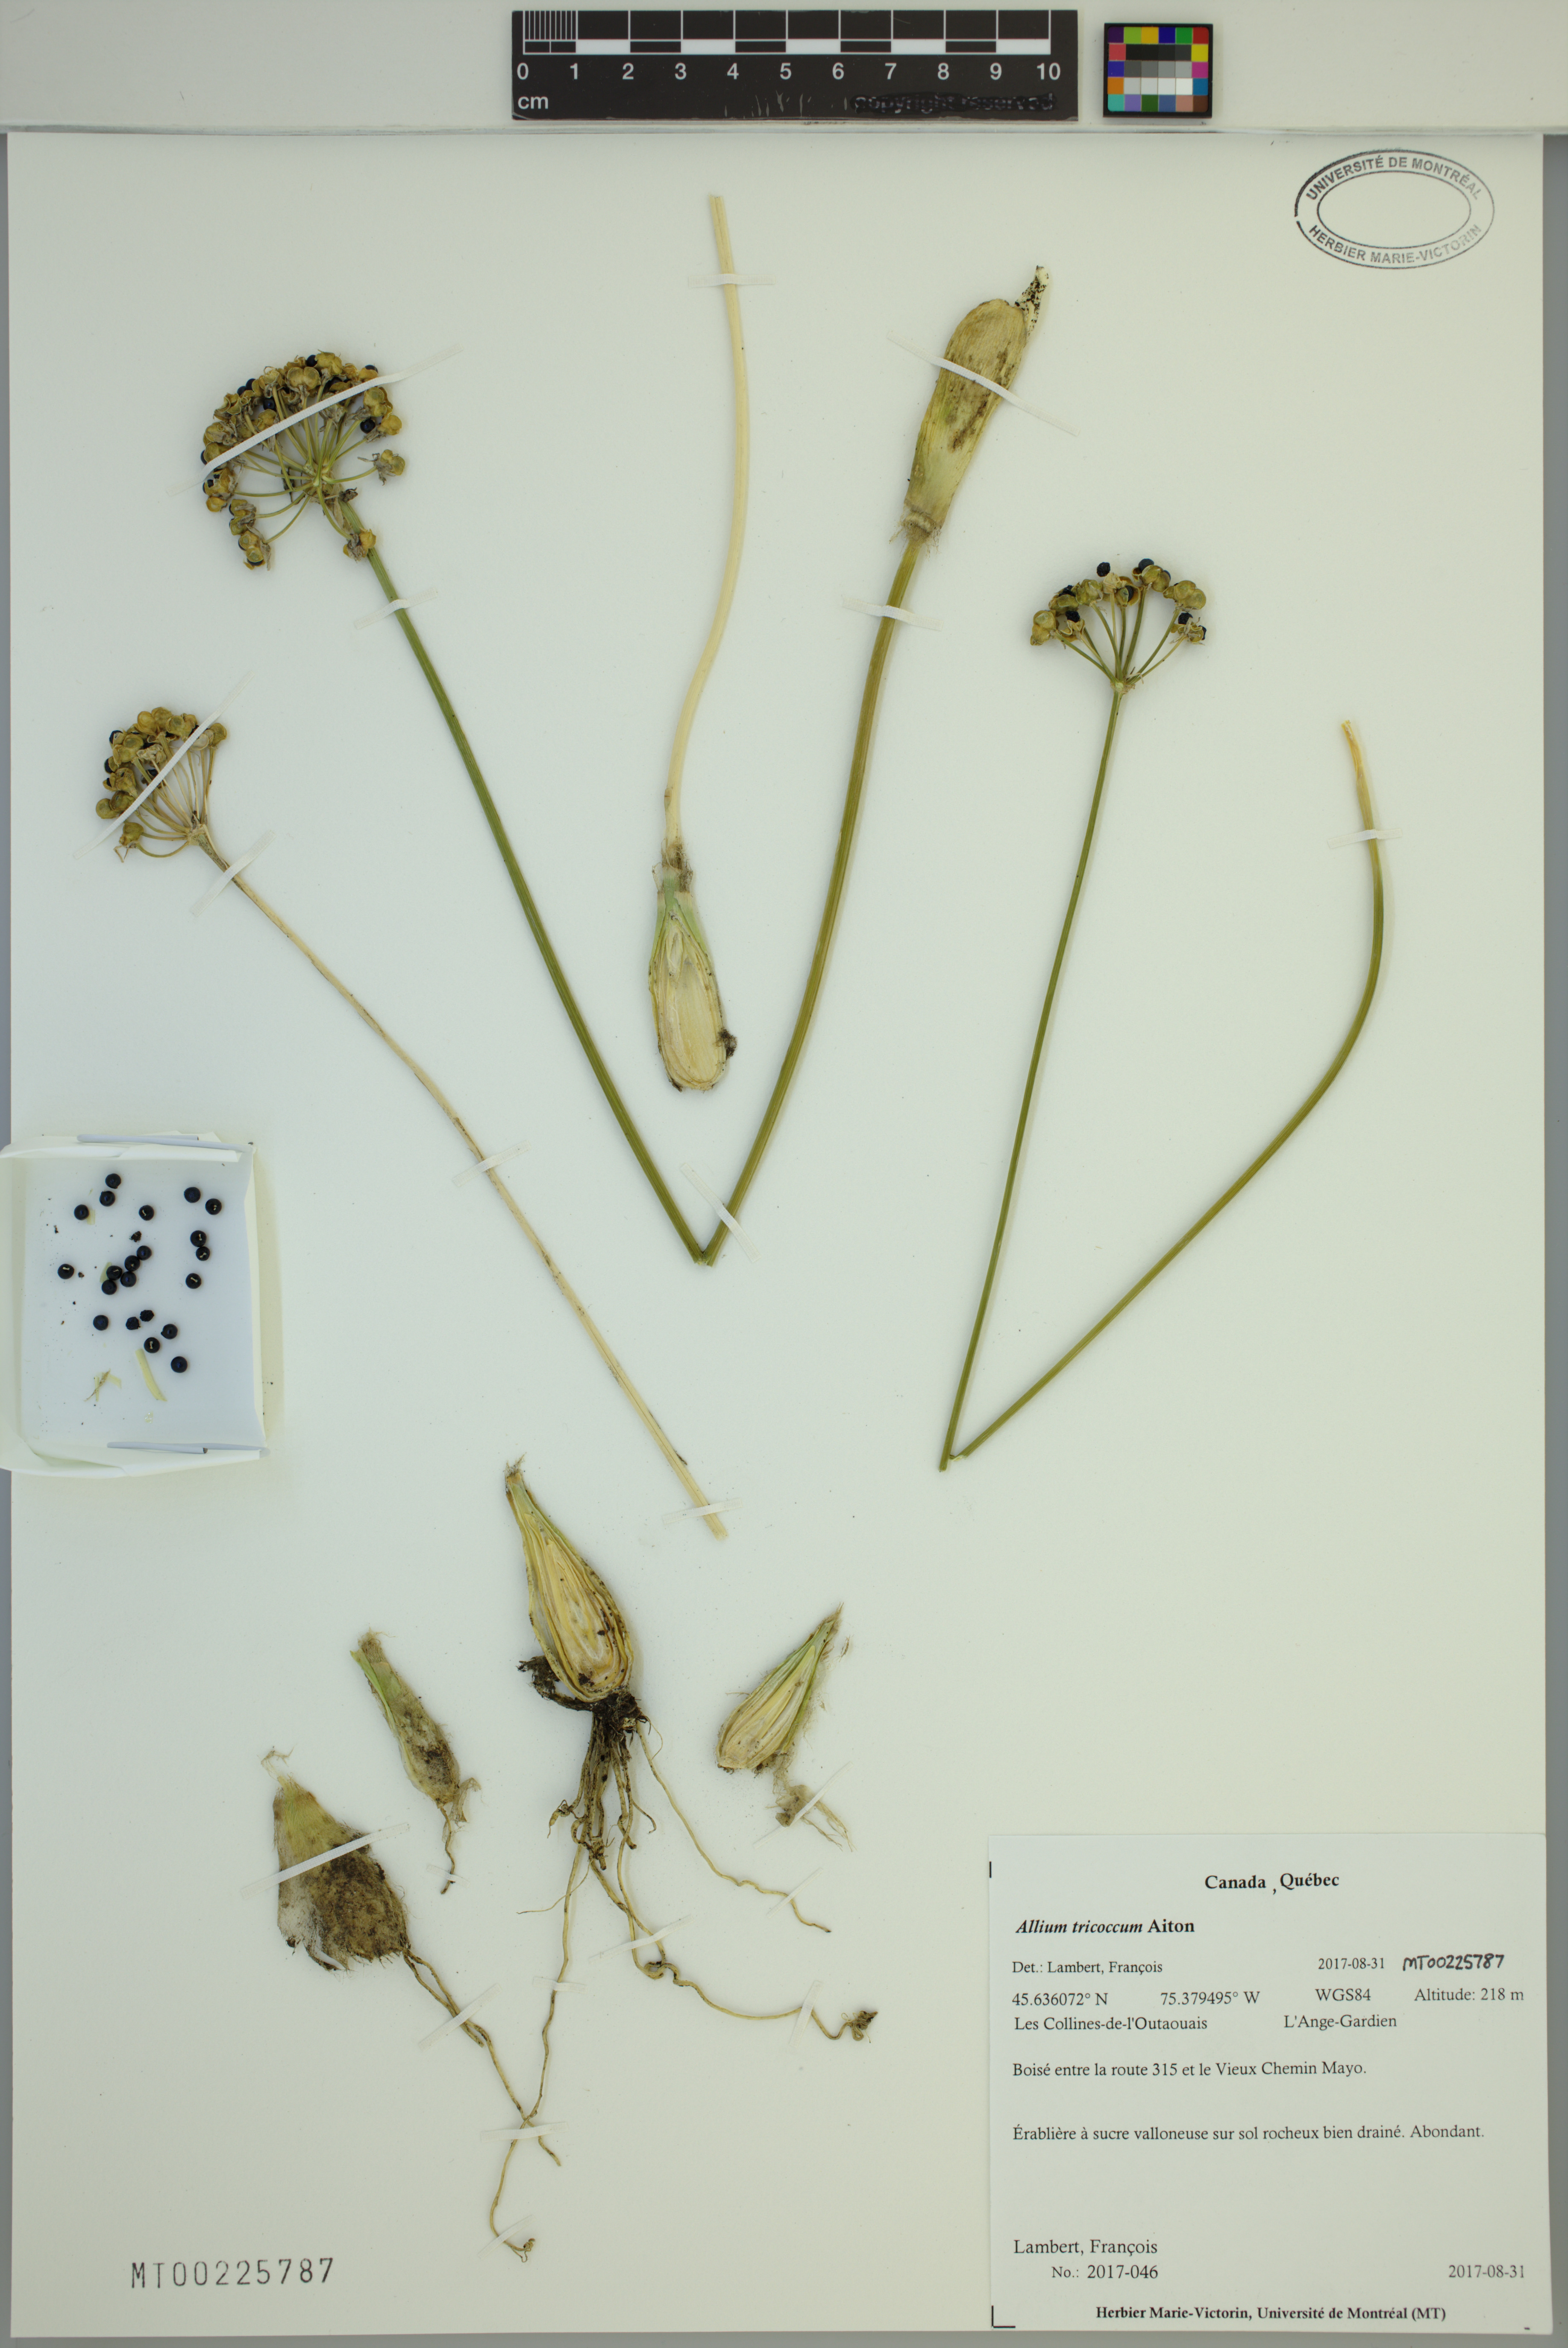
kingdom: Plantae
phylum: Tracheophyta
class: Liliopsida
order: Asparagales
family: Amaryllidaceae
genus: Allium
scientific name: Allium tricoccum
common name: Ramp
